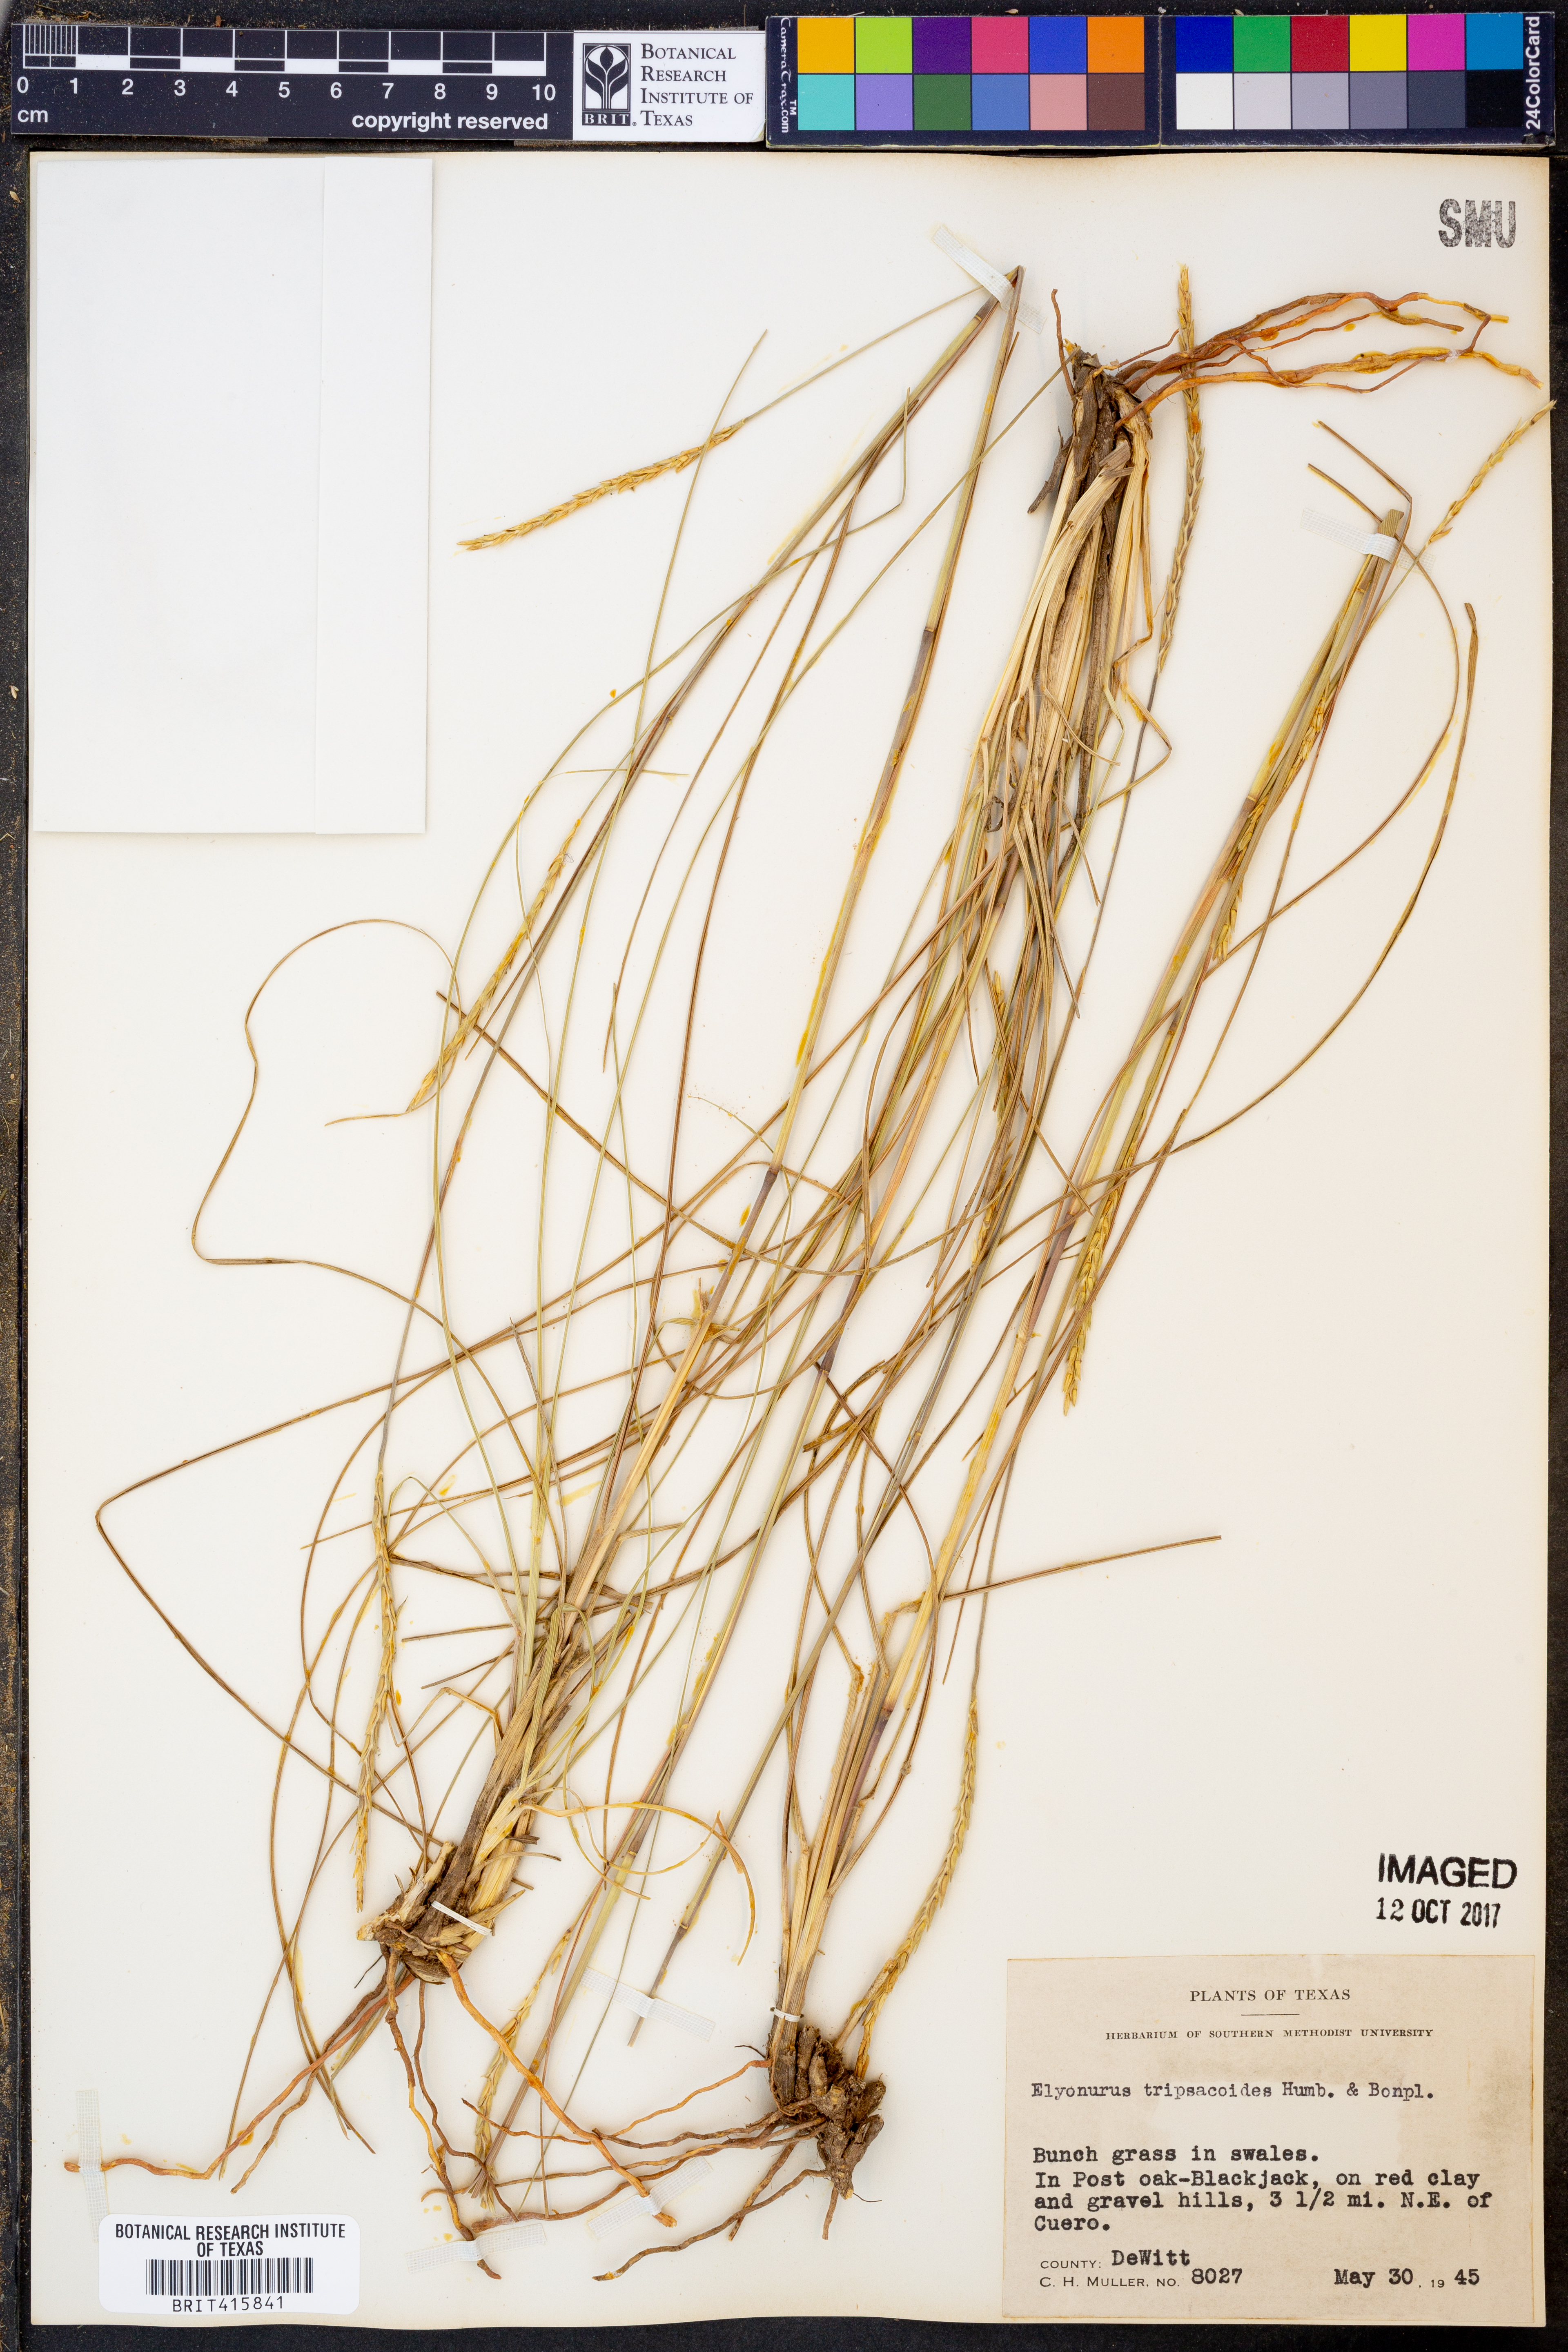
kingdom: Plantae
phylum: Tracheophyta
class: Liliopsida
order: Poales
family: Poaceae
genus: Elionurus
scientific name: Elionurus tripsacoides
